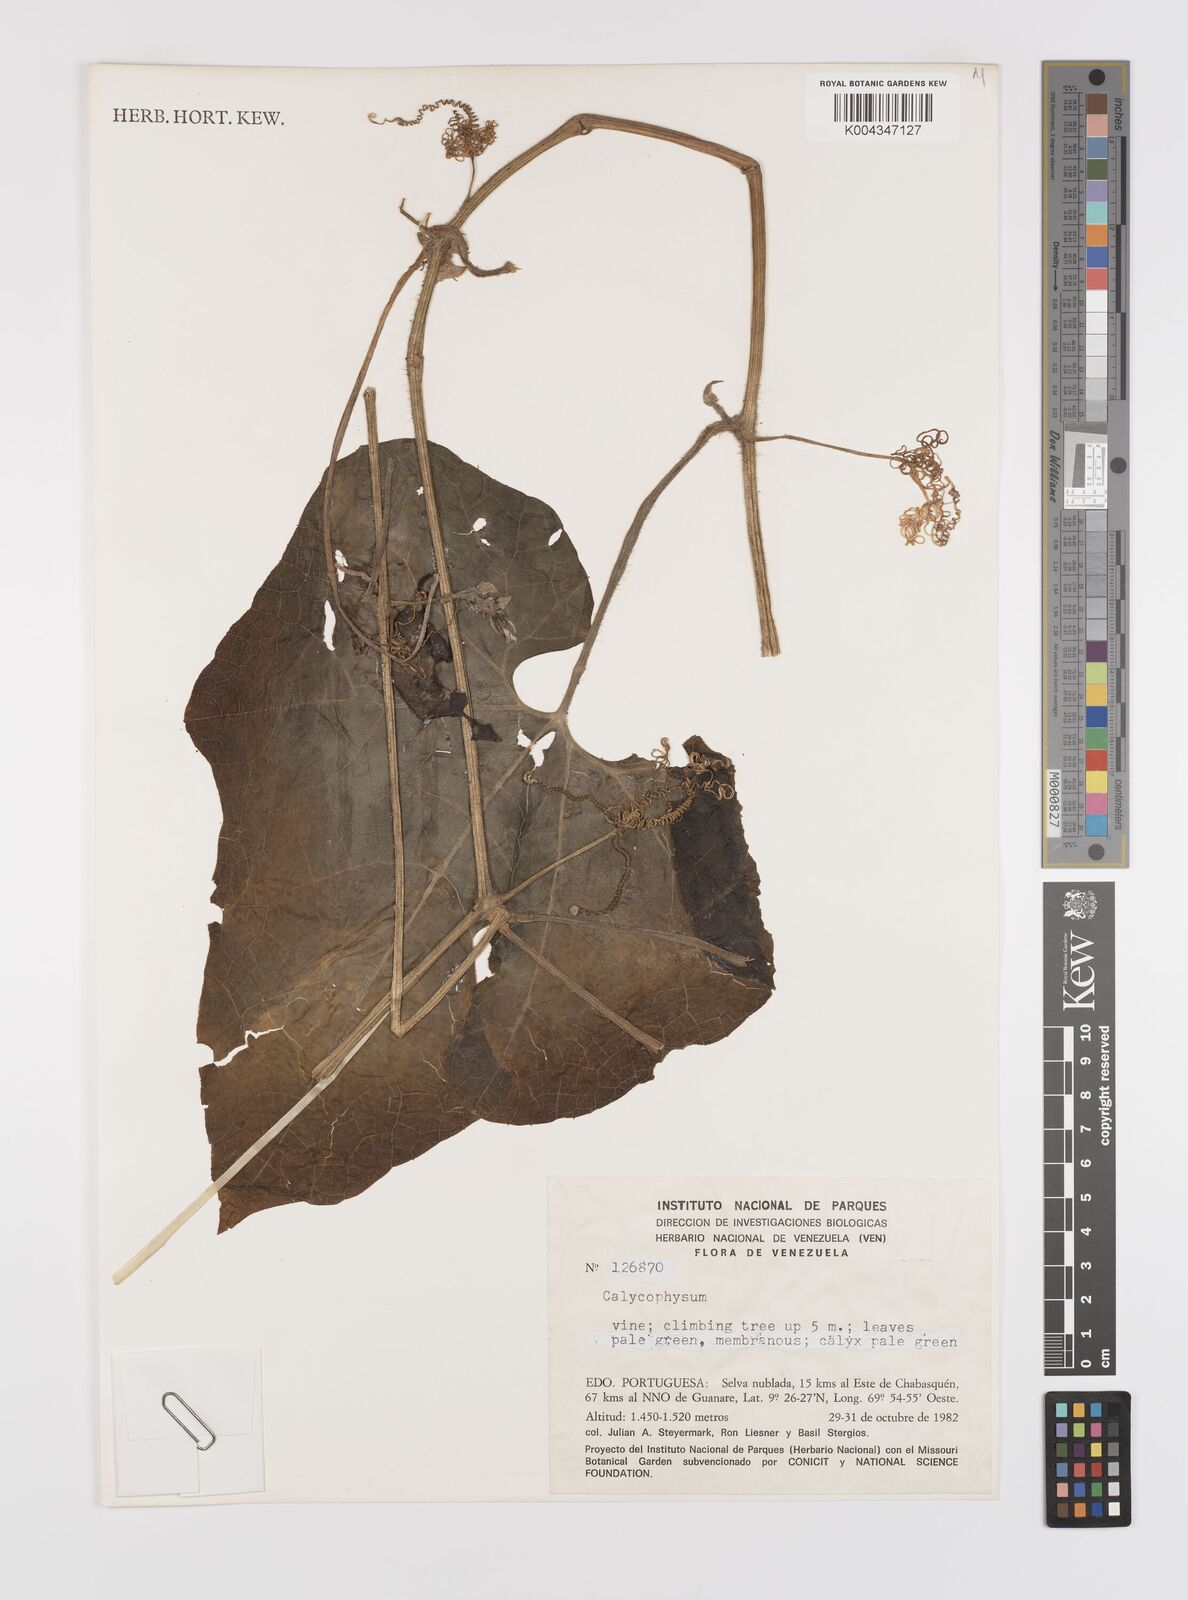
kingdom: Plantae
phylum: Tracheophyta
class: Magnoliopsida
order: Cucurbitales
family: Cucurbitaceae
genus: Calycophysum
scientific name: Calycophysum
